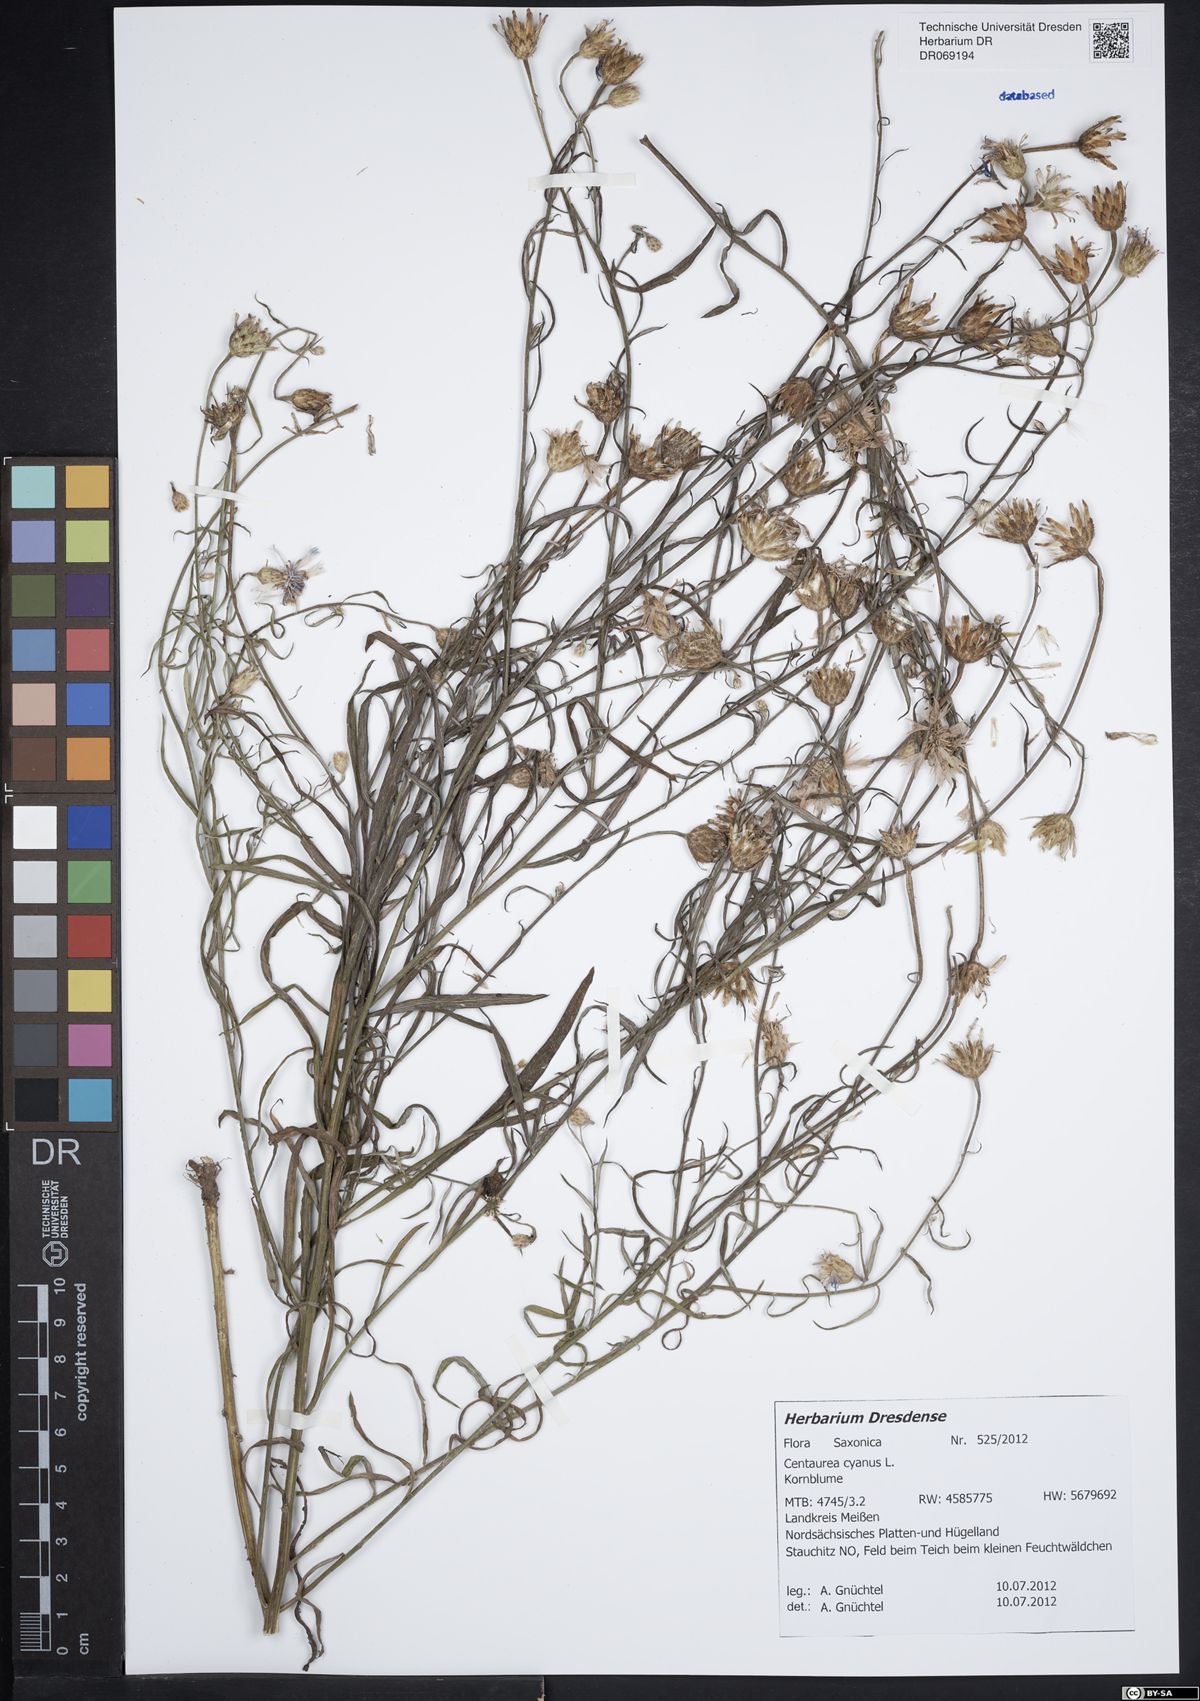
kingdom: Plantae
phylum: Tracheophyta
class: Magnoliopsida
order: Asterales
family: Asteraceae
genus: Centaurea
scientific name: Centaurea cyanus
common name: Cornflower
